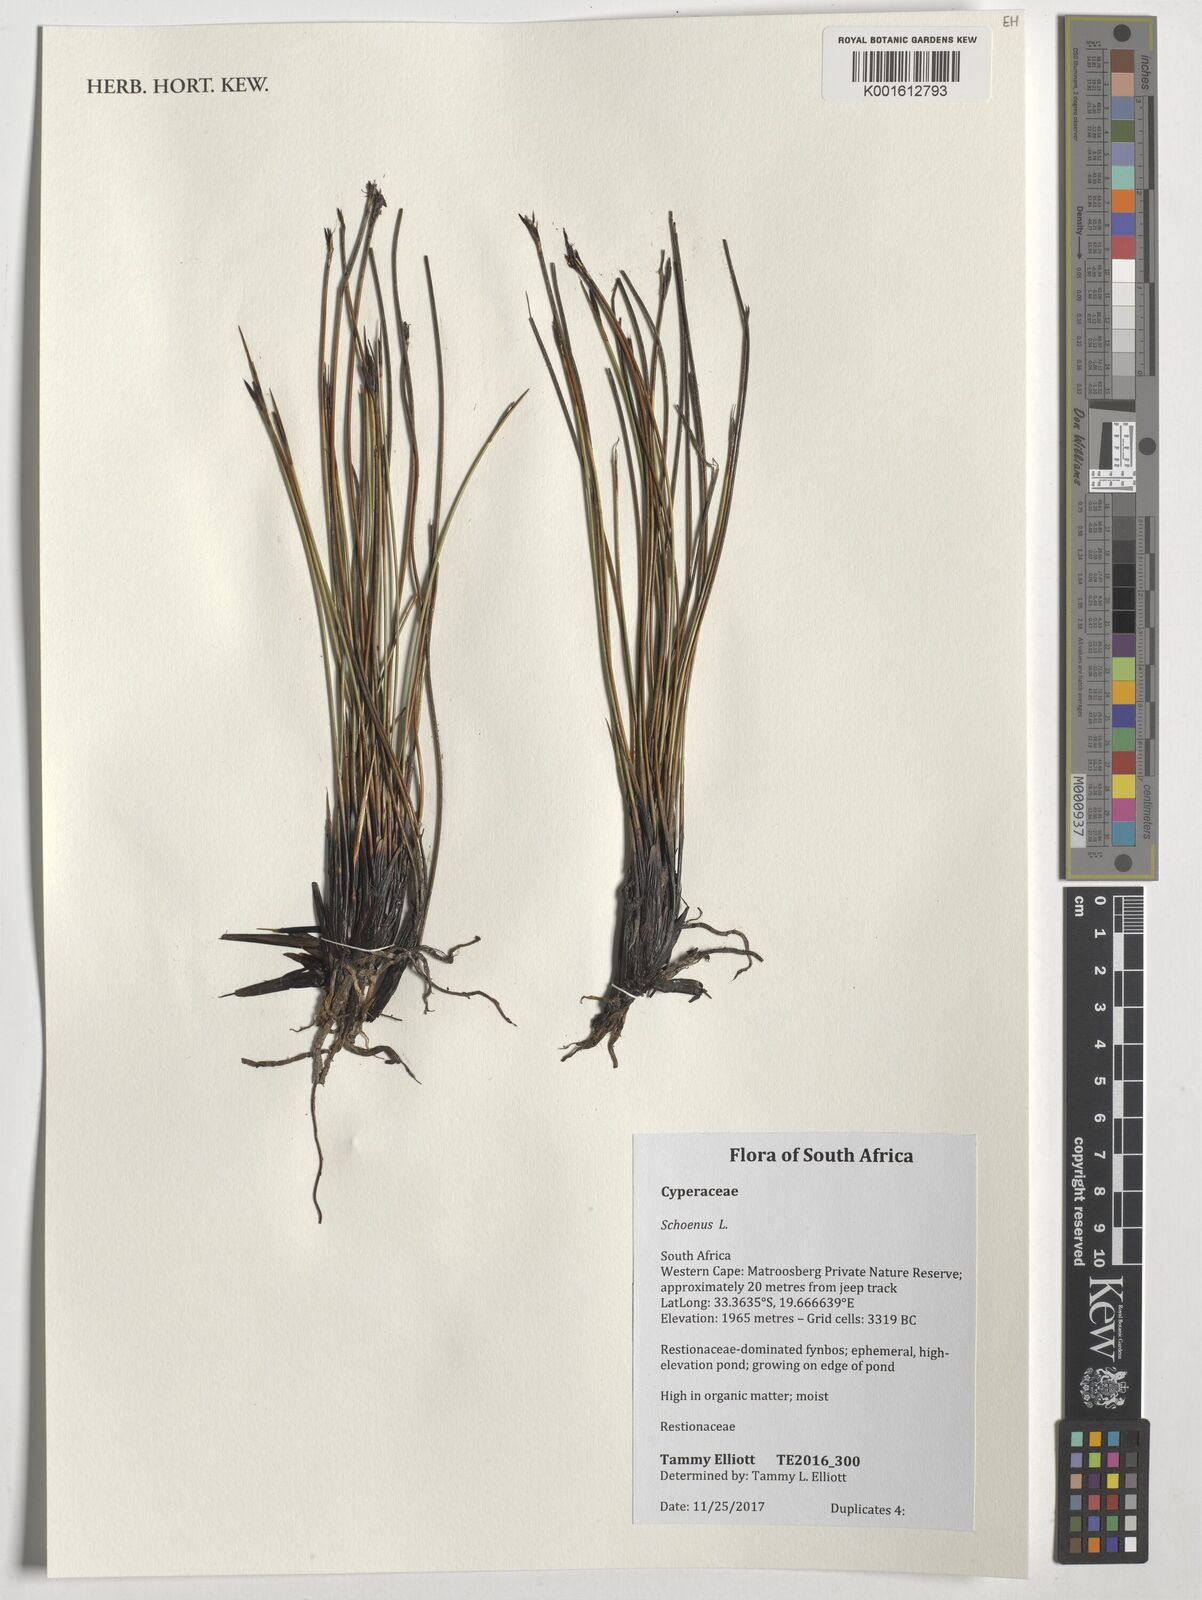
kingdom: Plantae
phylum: Tracheophyta
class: Liliopsida
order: Poales
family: Cyperaceae
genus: Schoenus
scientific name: Schoenus
